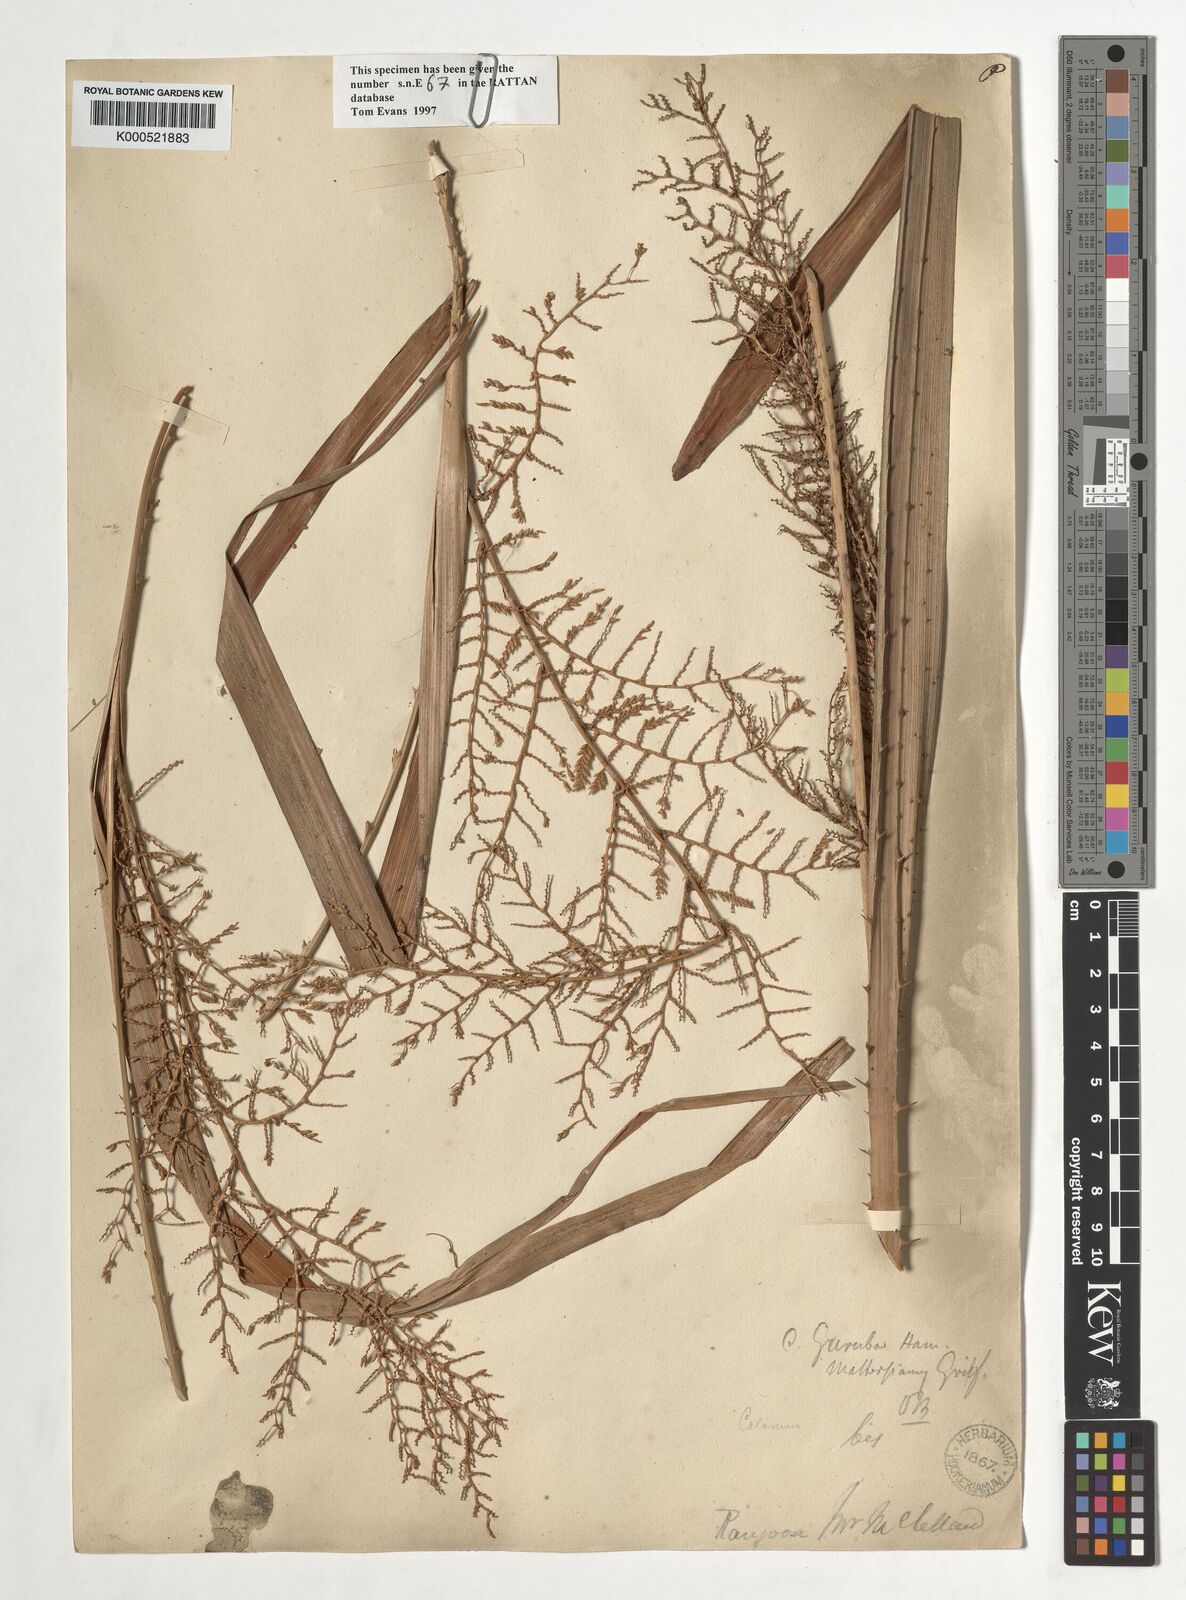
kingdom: Plantae
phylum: Tracheophyta
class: Liliopsida
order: Arecales
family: Arecaceae
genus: Calamus
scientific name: Calamus
